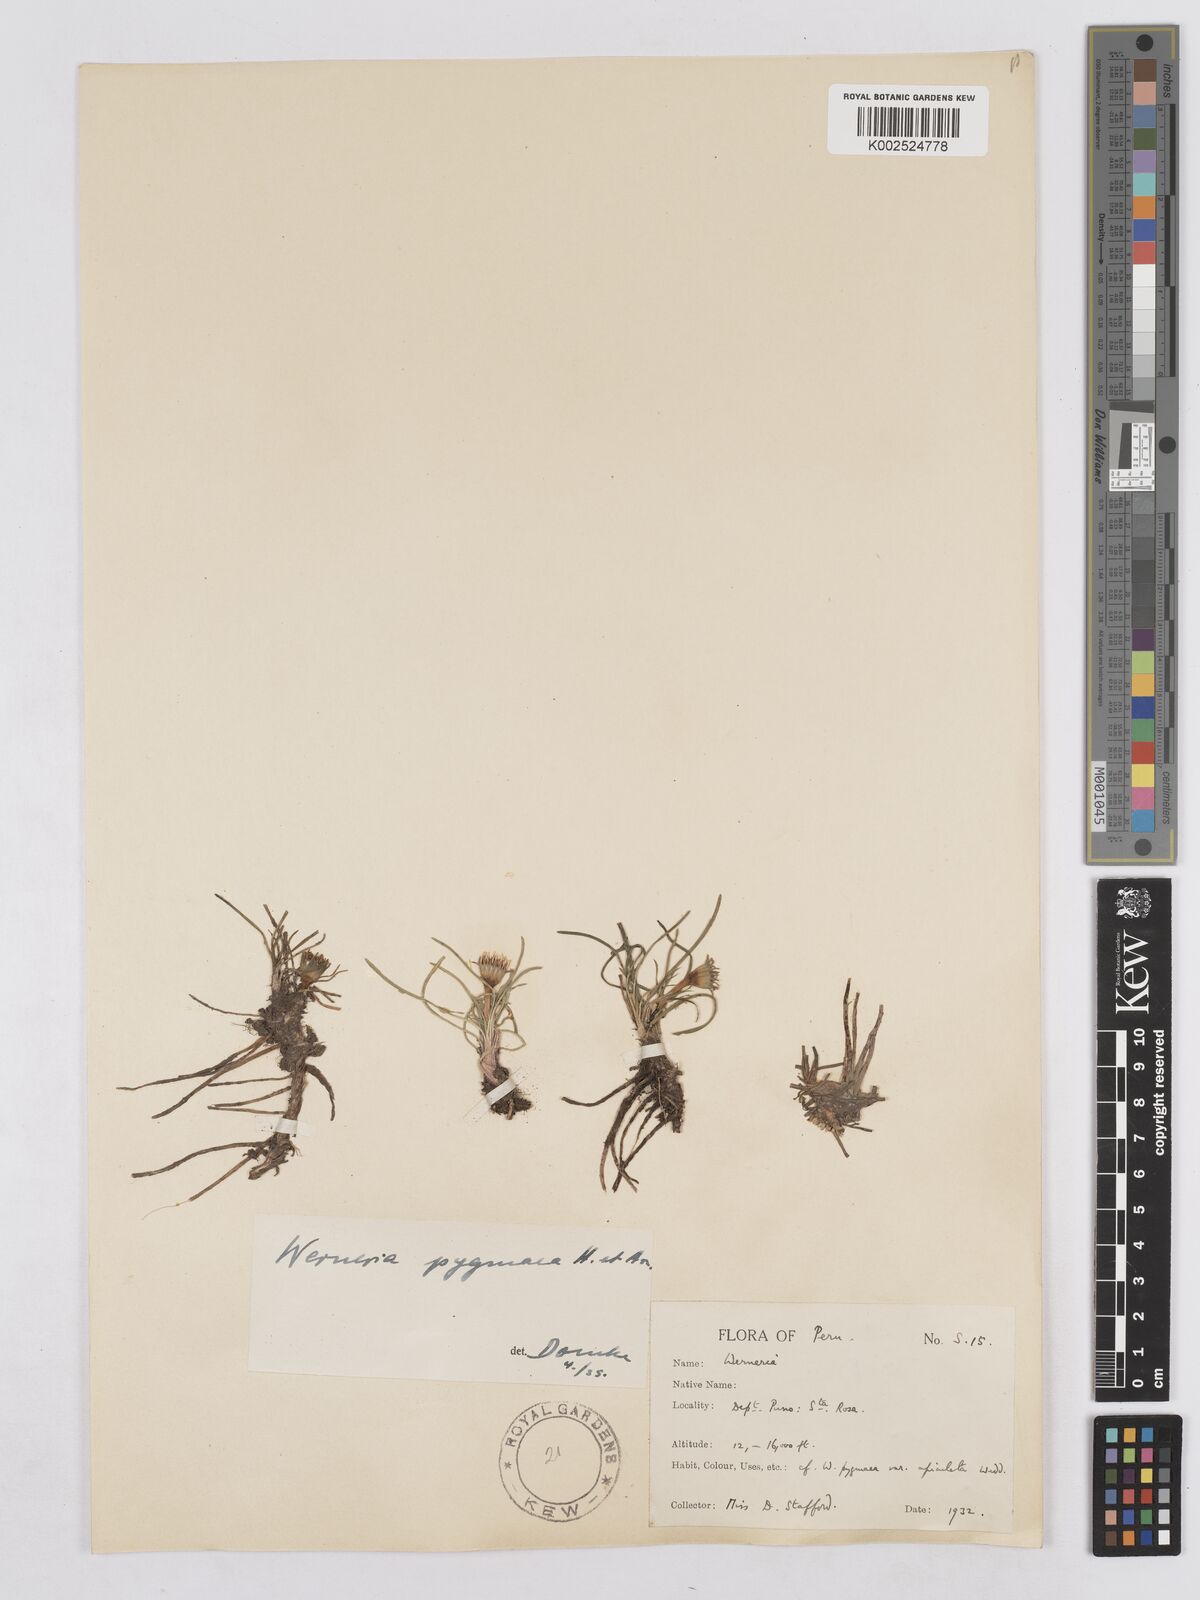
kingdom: Plantae
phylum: Tracheophyta
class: Magnoliopsida
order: Asterales
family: Asteraceae
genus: Rockhausenia
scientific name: Rockhausenia apiculata
